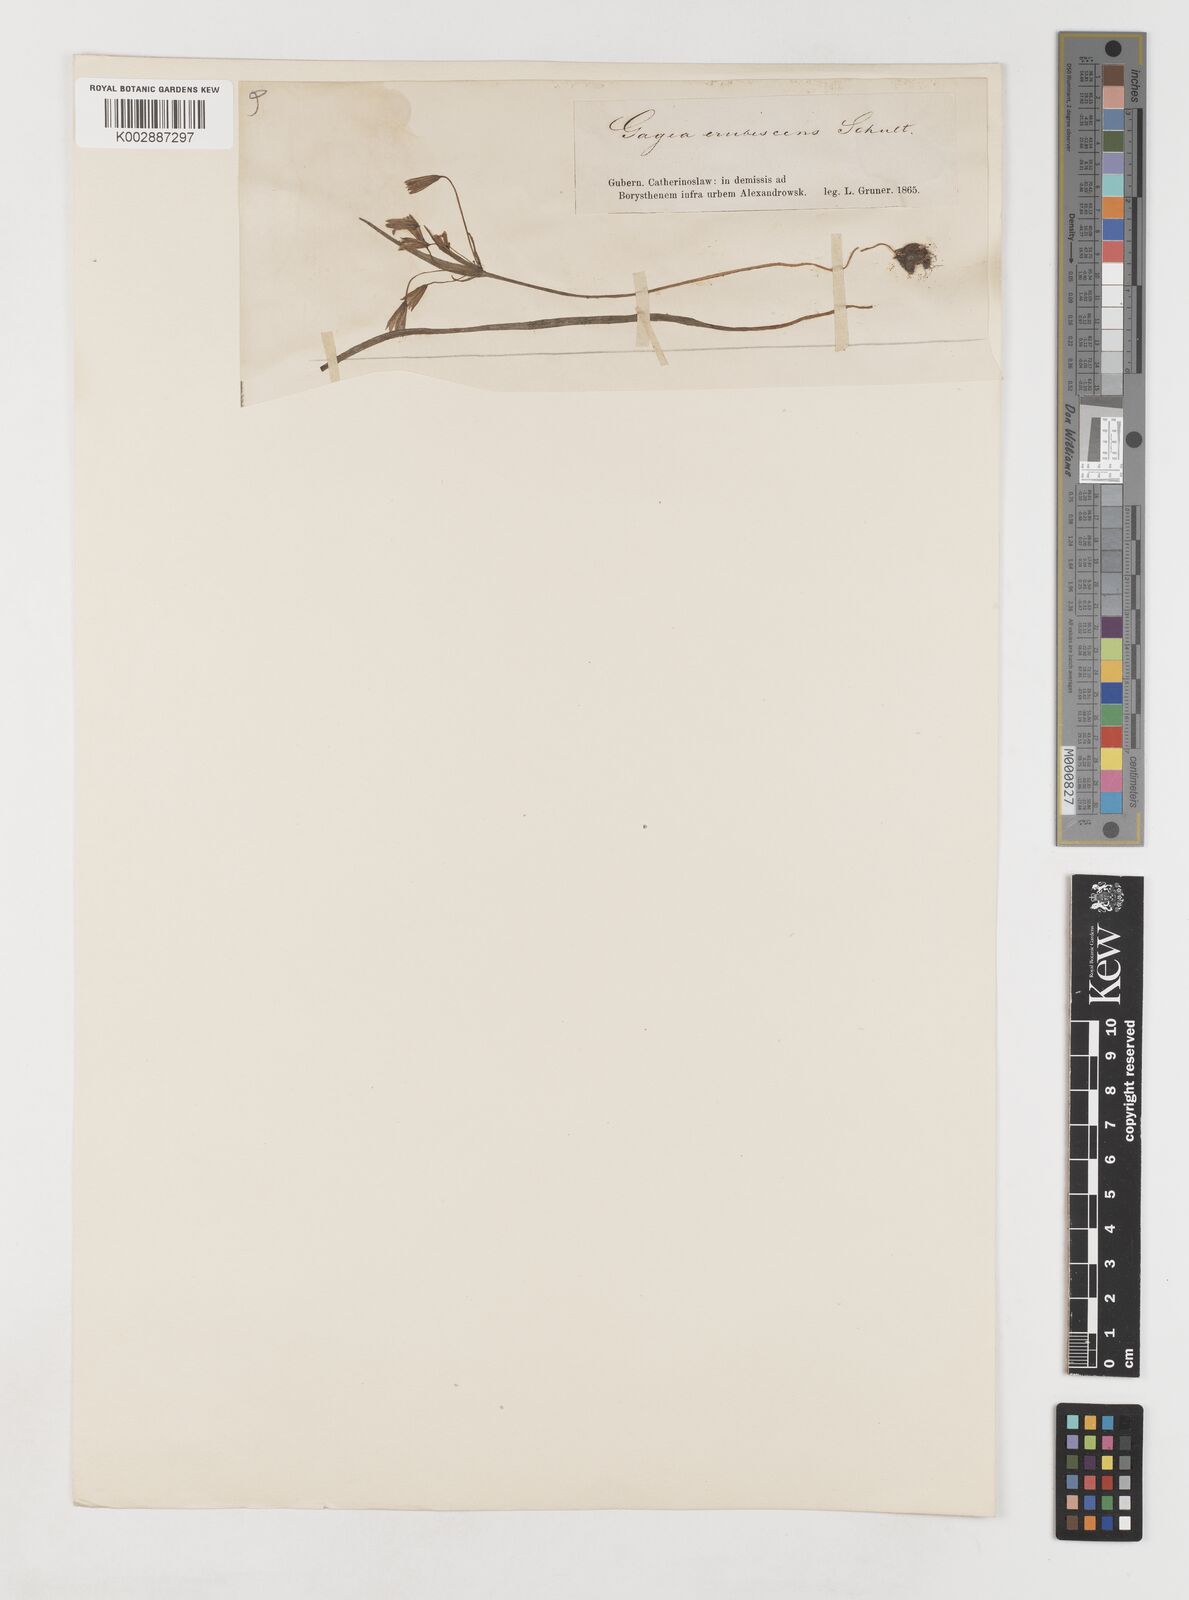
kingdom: Plantae
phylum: Tracheophyta
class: Liliopsida
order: Liliales
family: Liliaceae
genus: Gagea
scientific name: Gagea bohemica
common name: Early star-of-bethlehem
